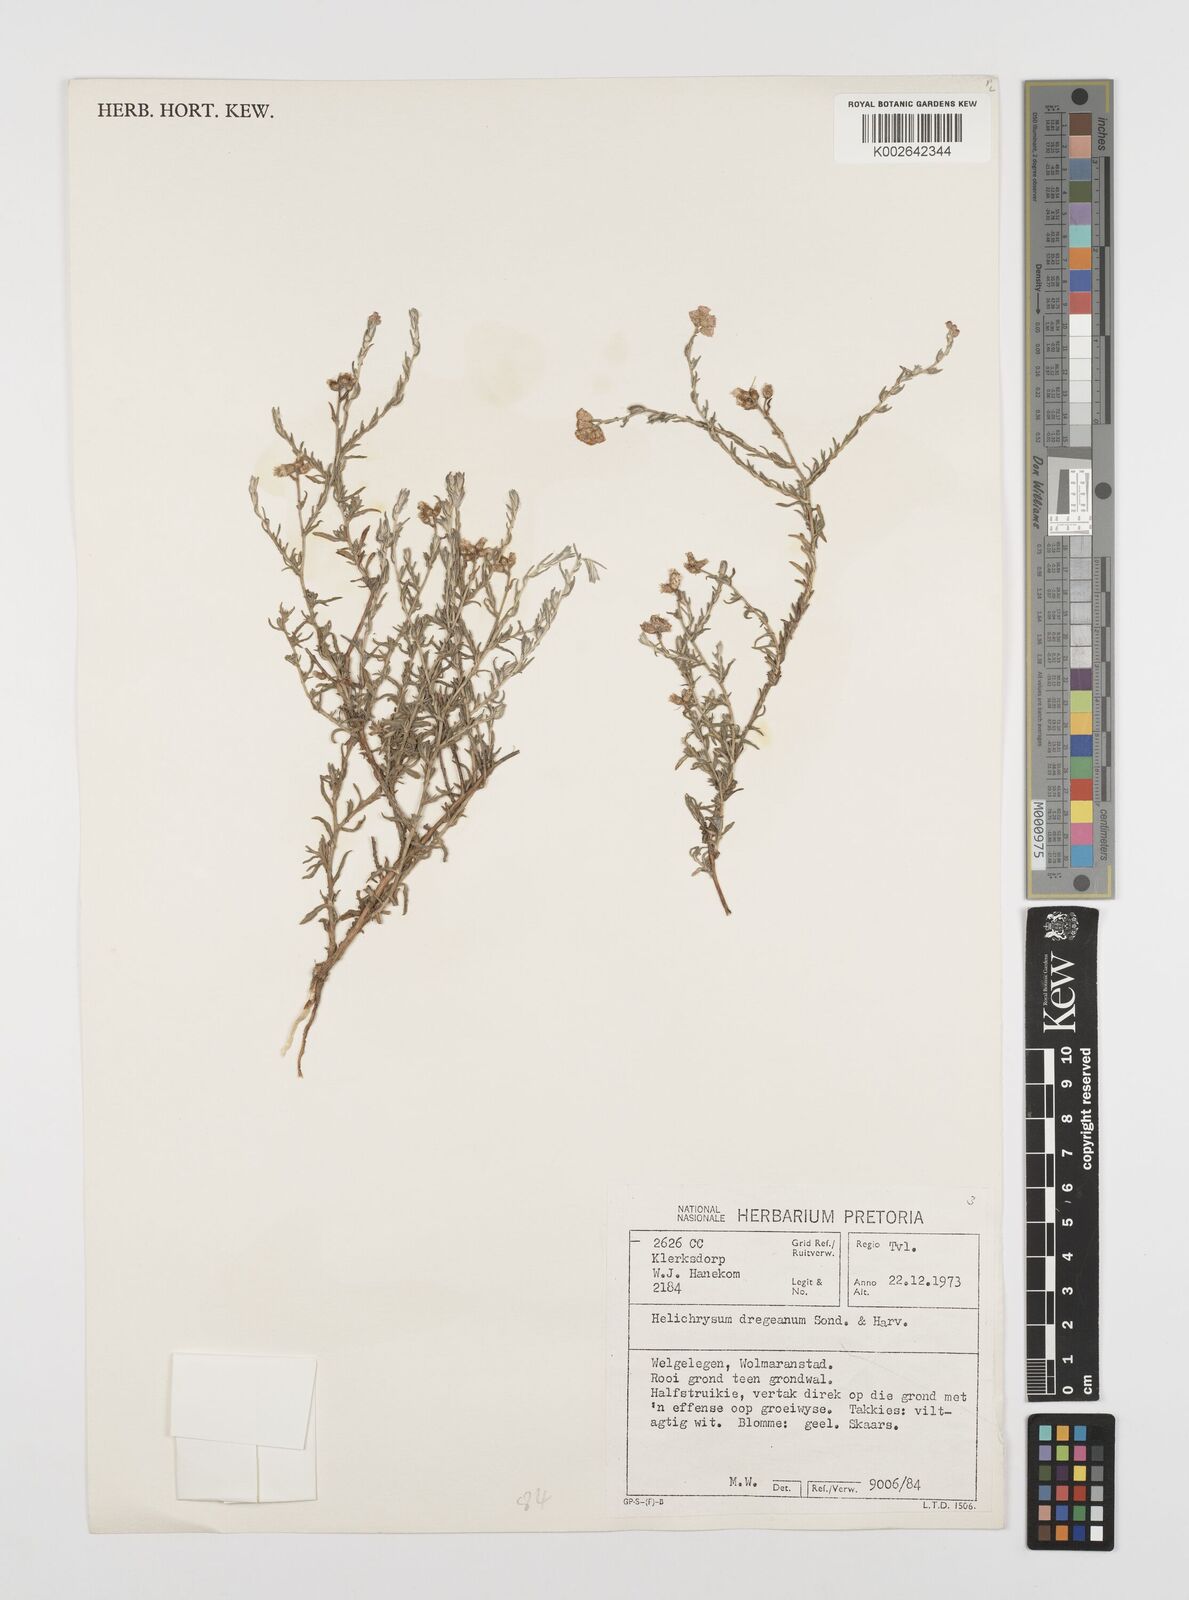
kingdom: Plantae
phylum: Tracheophyta
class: Magnoliopsida
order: Asterales
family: Asteraceae
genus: Helichrysum
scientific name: Helichrysum dregeanum
